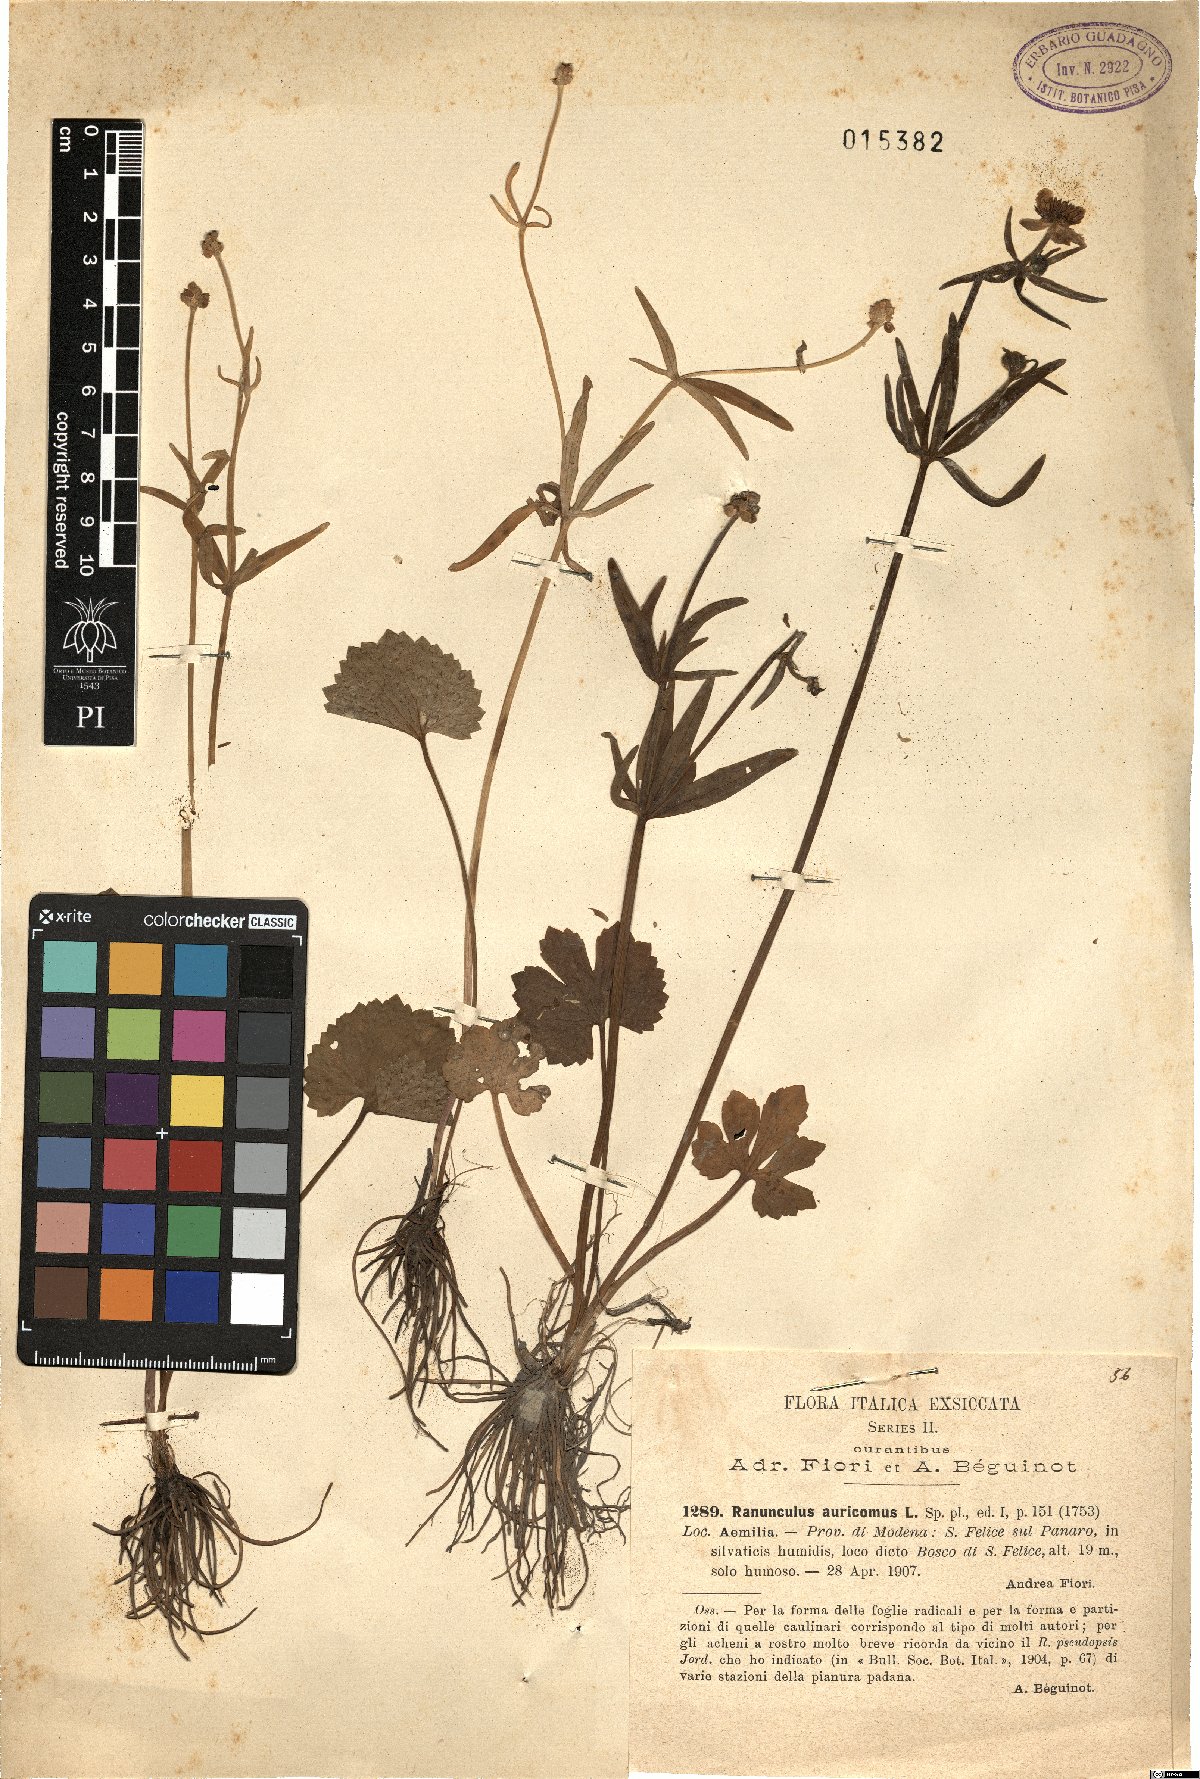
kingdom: Plantae
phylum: Tracheophyta
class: Magnoliopsida
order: Ranunculales
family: Ranunculaceae
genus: Ranunculus
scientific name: Ranunculus mutinensis
